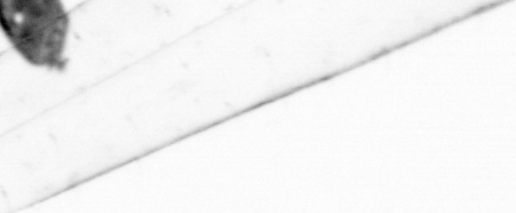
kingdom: Animalia
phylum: Arthropoda
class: Maxillopoda
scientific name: Maxillopoda
